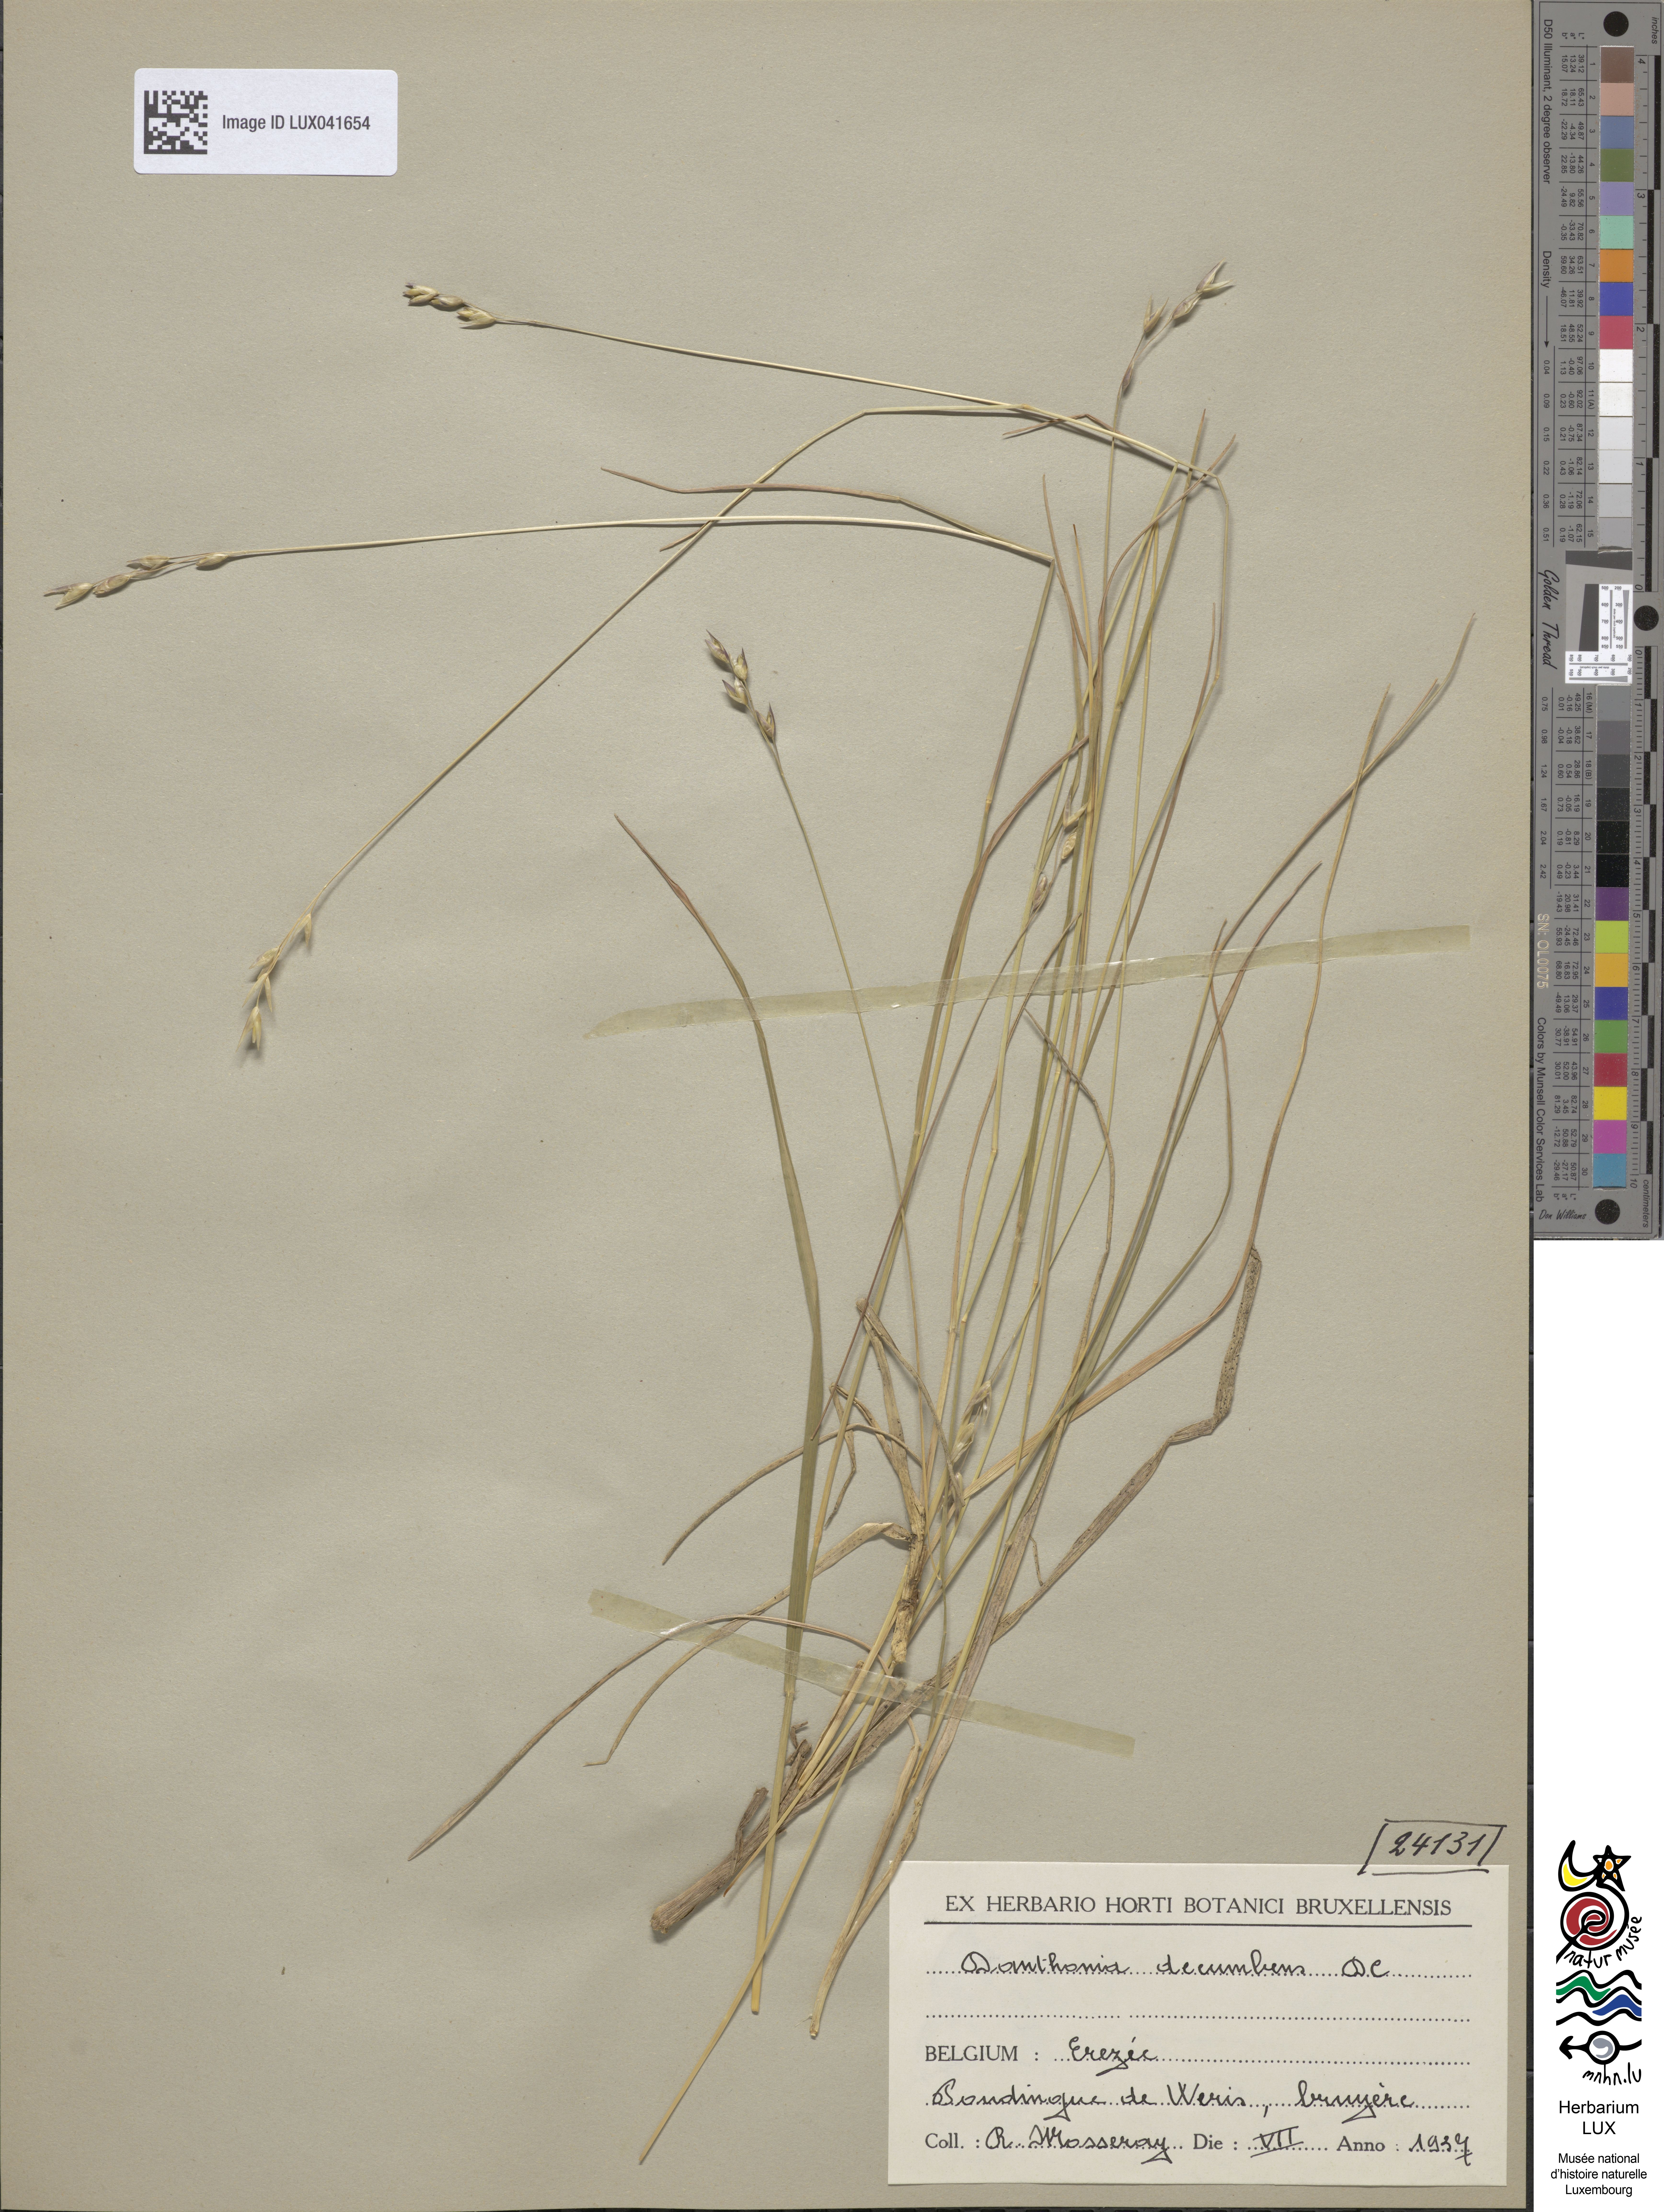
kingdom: Plantae
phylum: Tracheophyta
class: Liliopsida
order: Poales
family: Poaceae
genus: Danthonia
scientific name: Danthonia decumbens
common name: Common heathgrass
